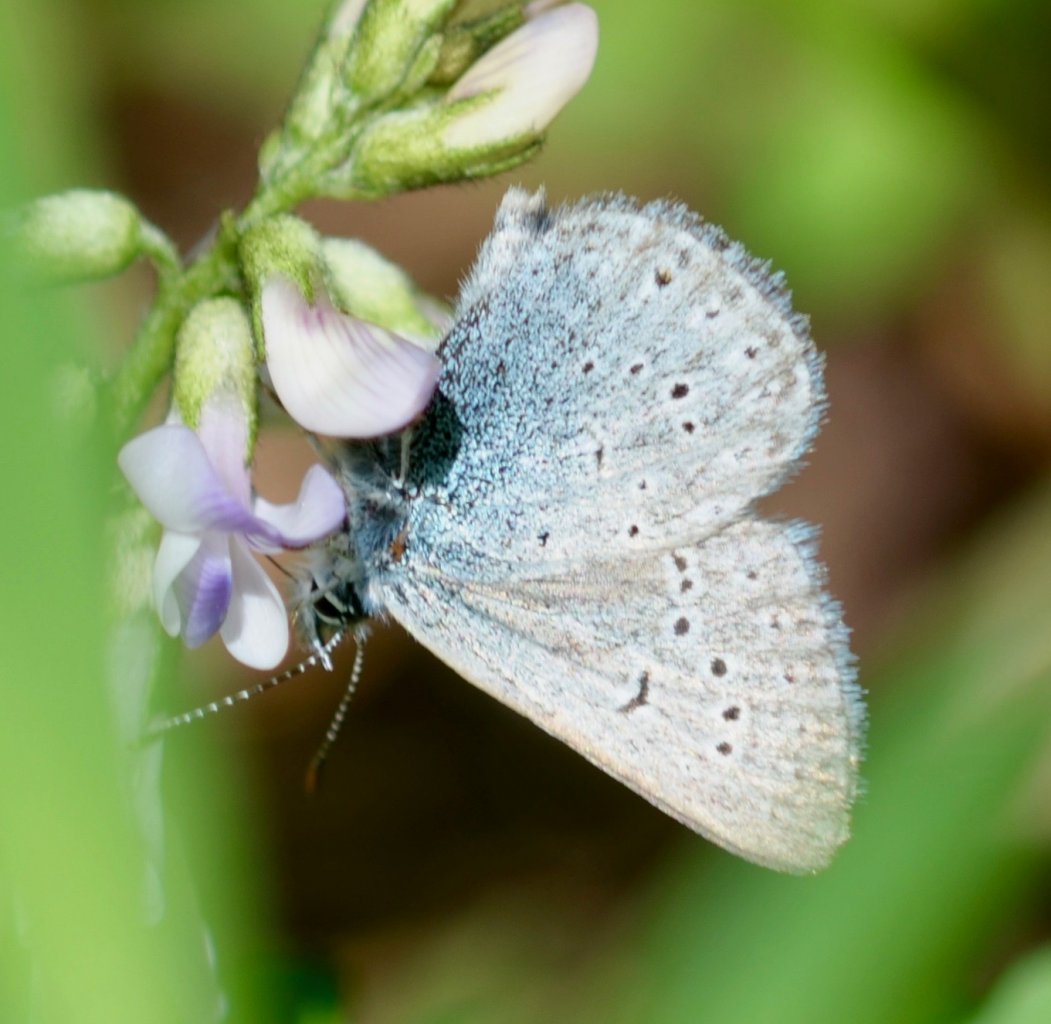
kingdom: Animalia
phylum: Arthropoda
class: Insecta
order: Lepidoptera
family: Lycaenidae
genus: Glaucopsyche
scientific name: Glaucopsyche lygdamus
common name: Silvery Blue
